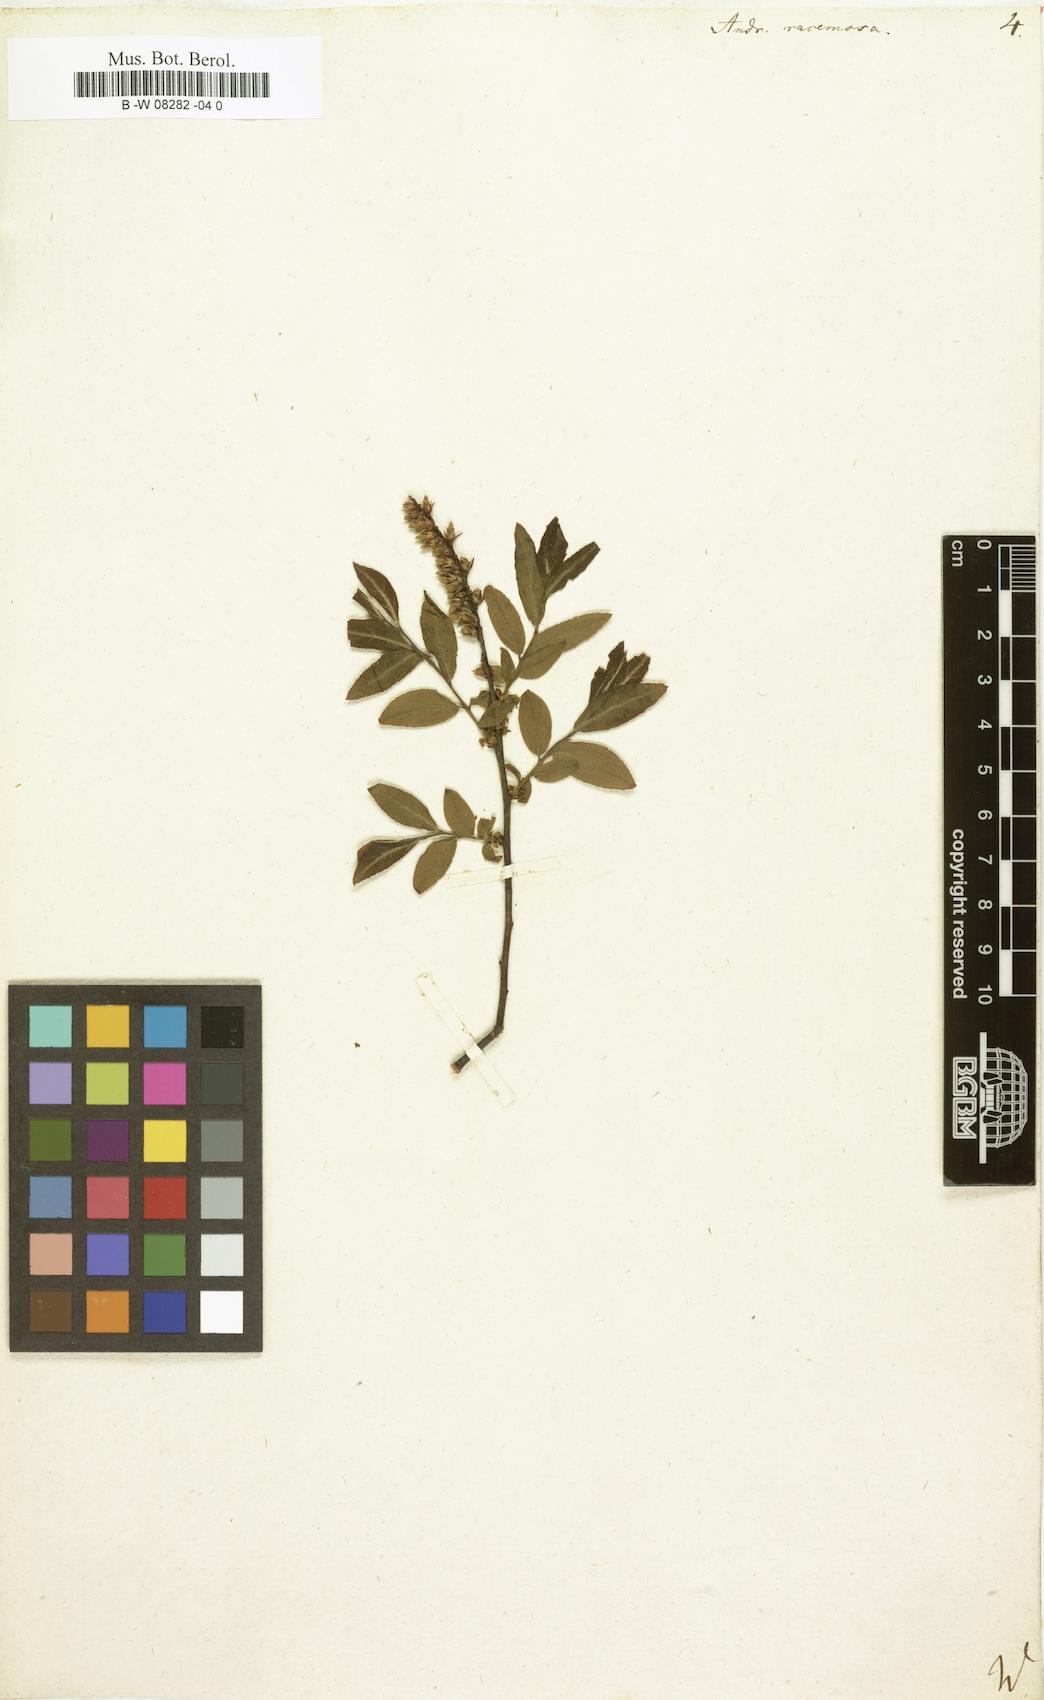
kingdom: Plantae
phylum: Tracheophyta
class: Magnoliopsida
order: Ericales
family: Ericaceae
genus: Eubotrys
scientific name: Eubotrys racemosa
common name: Fetterbush
